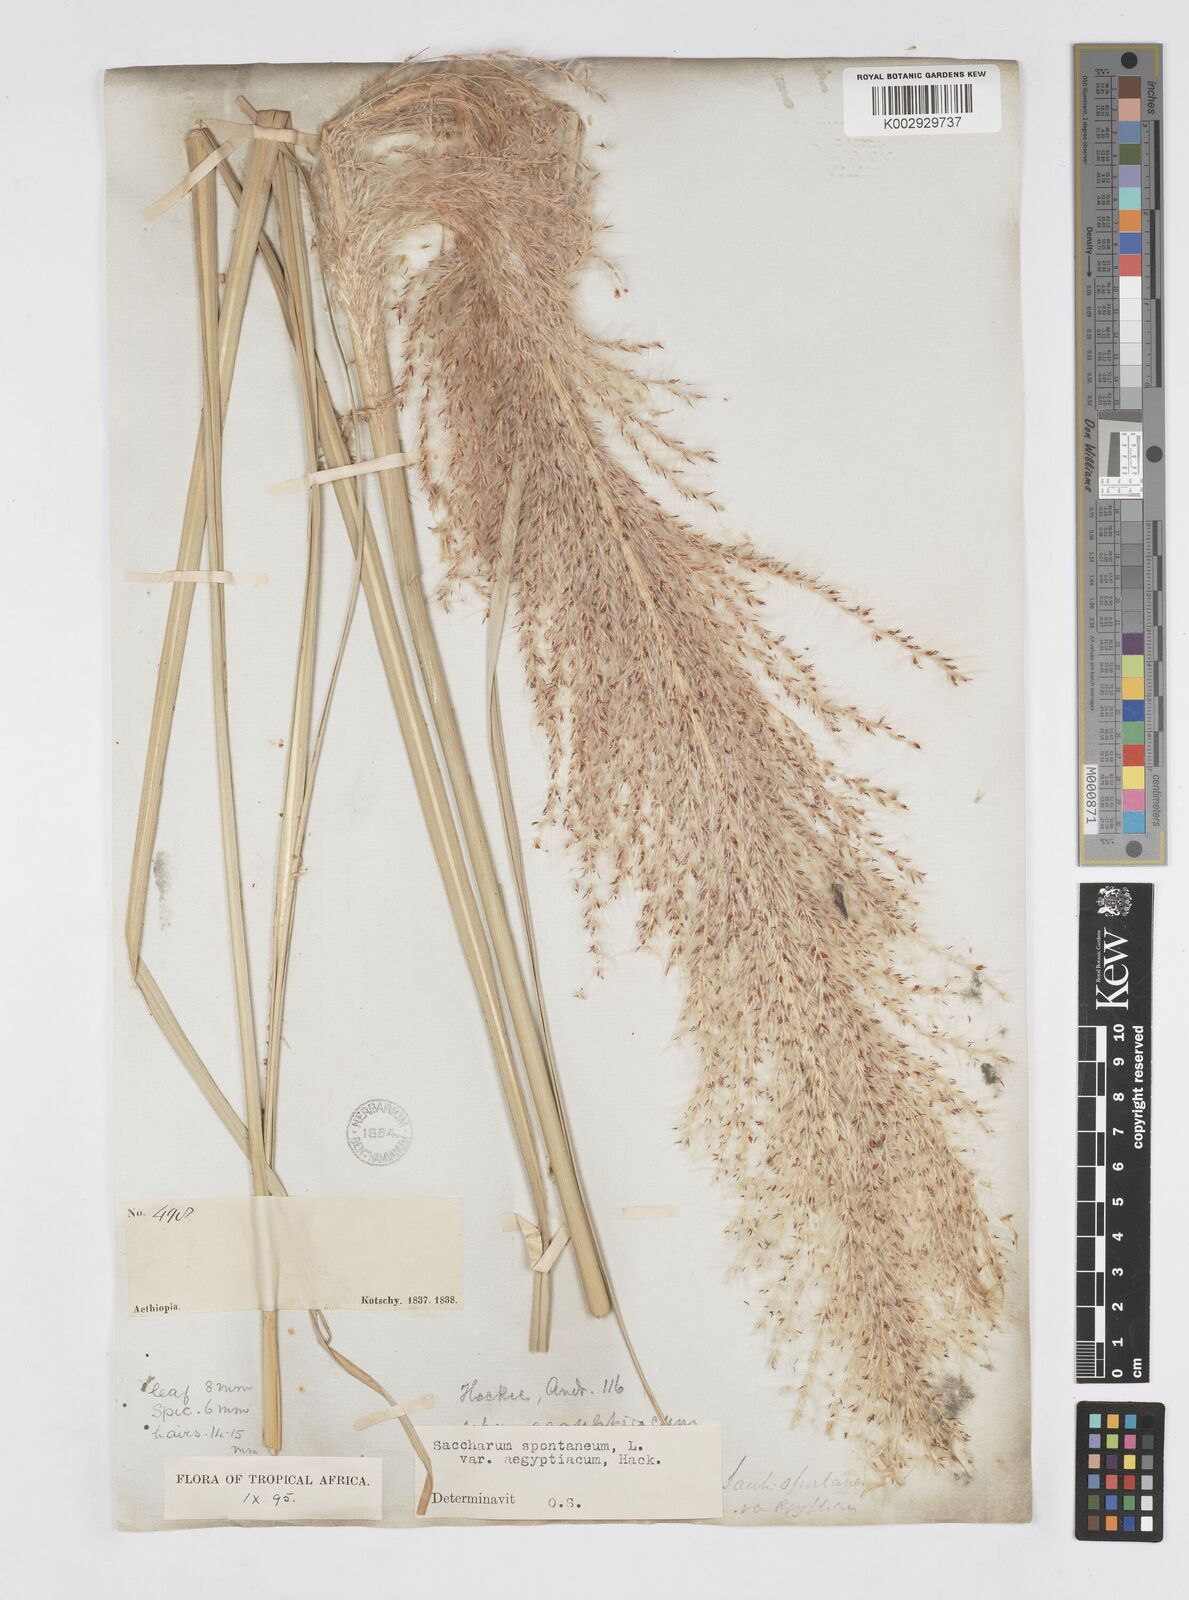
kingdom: Plantae
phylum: Tracheophyta
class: Liliopsida
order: Poales
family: Poaceae
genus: Saccharum
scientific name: Saccharum spontaneum
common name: Wild sugarcane
